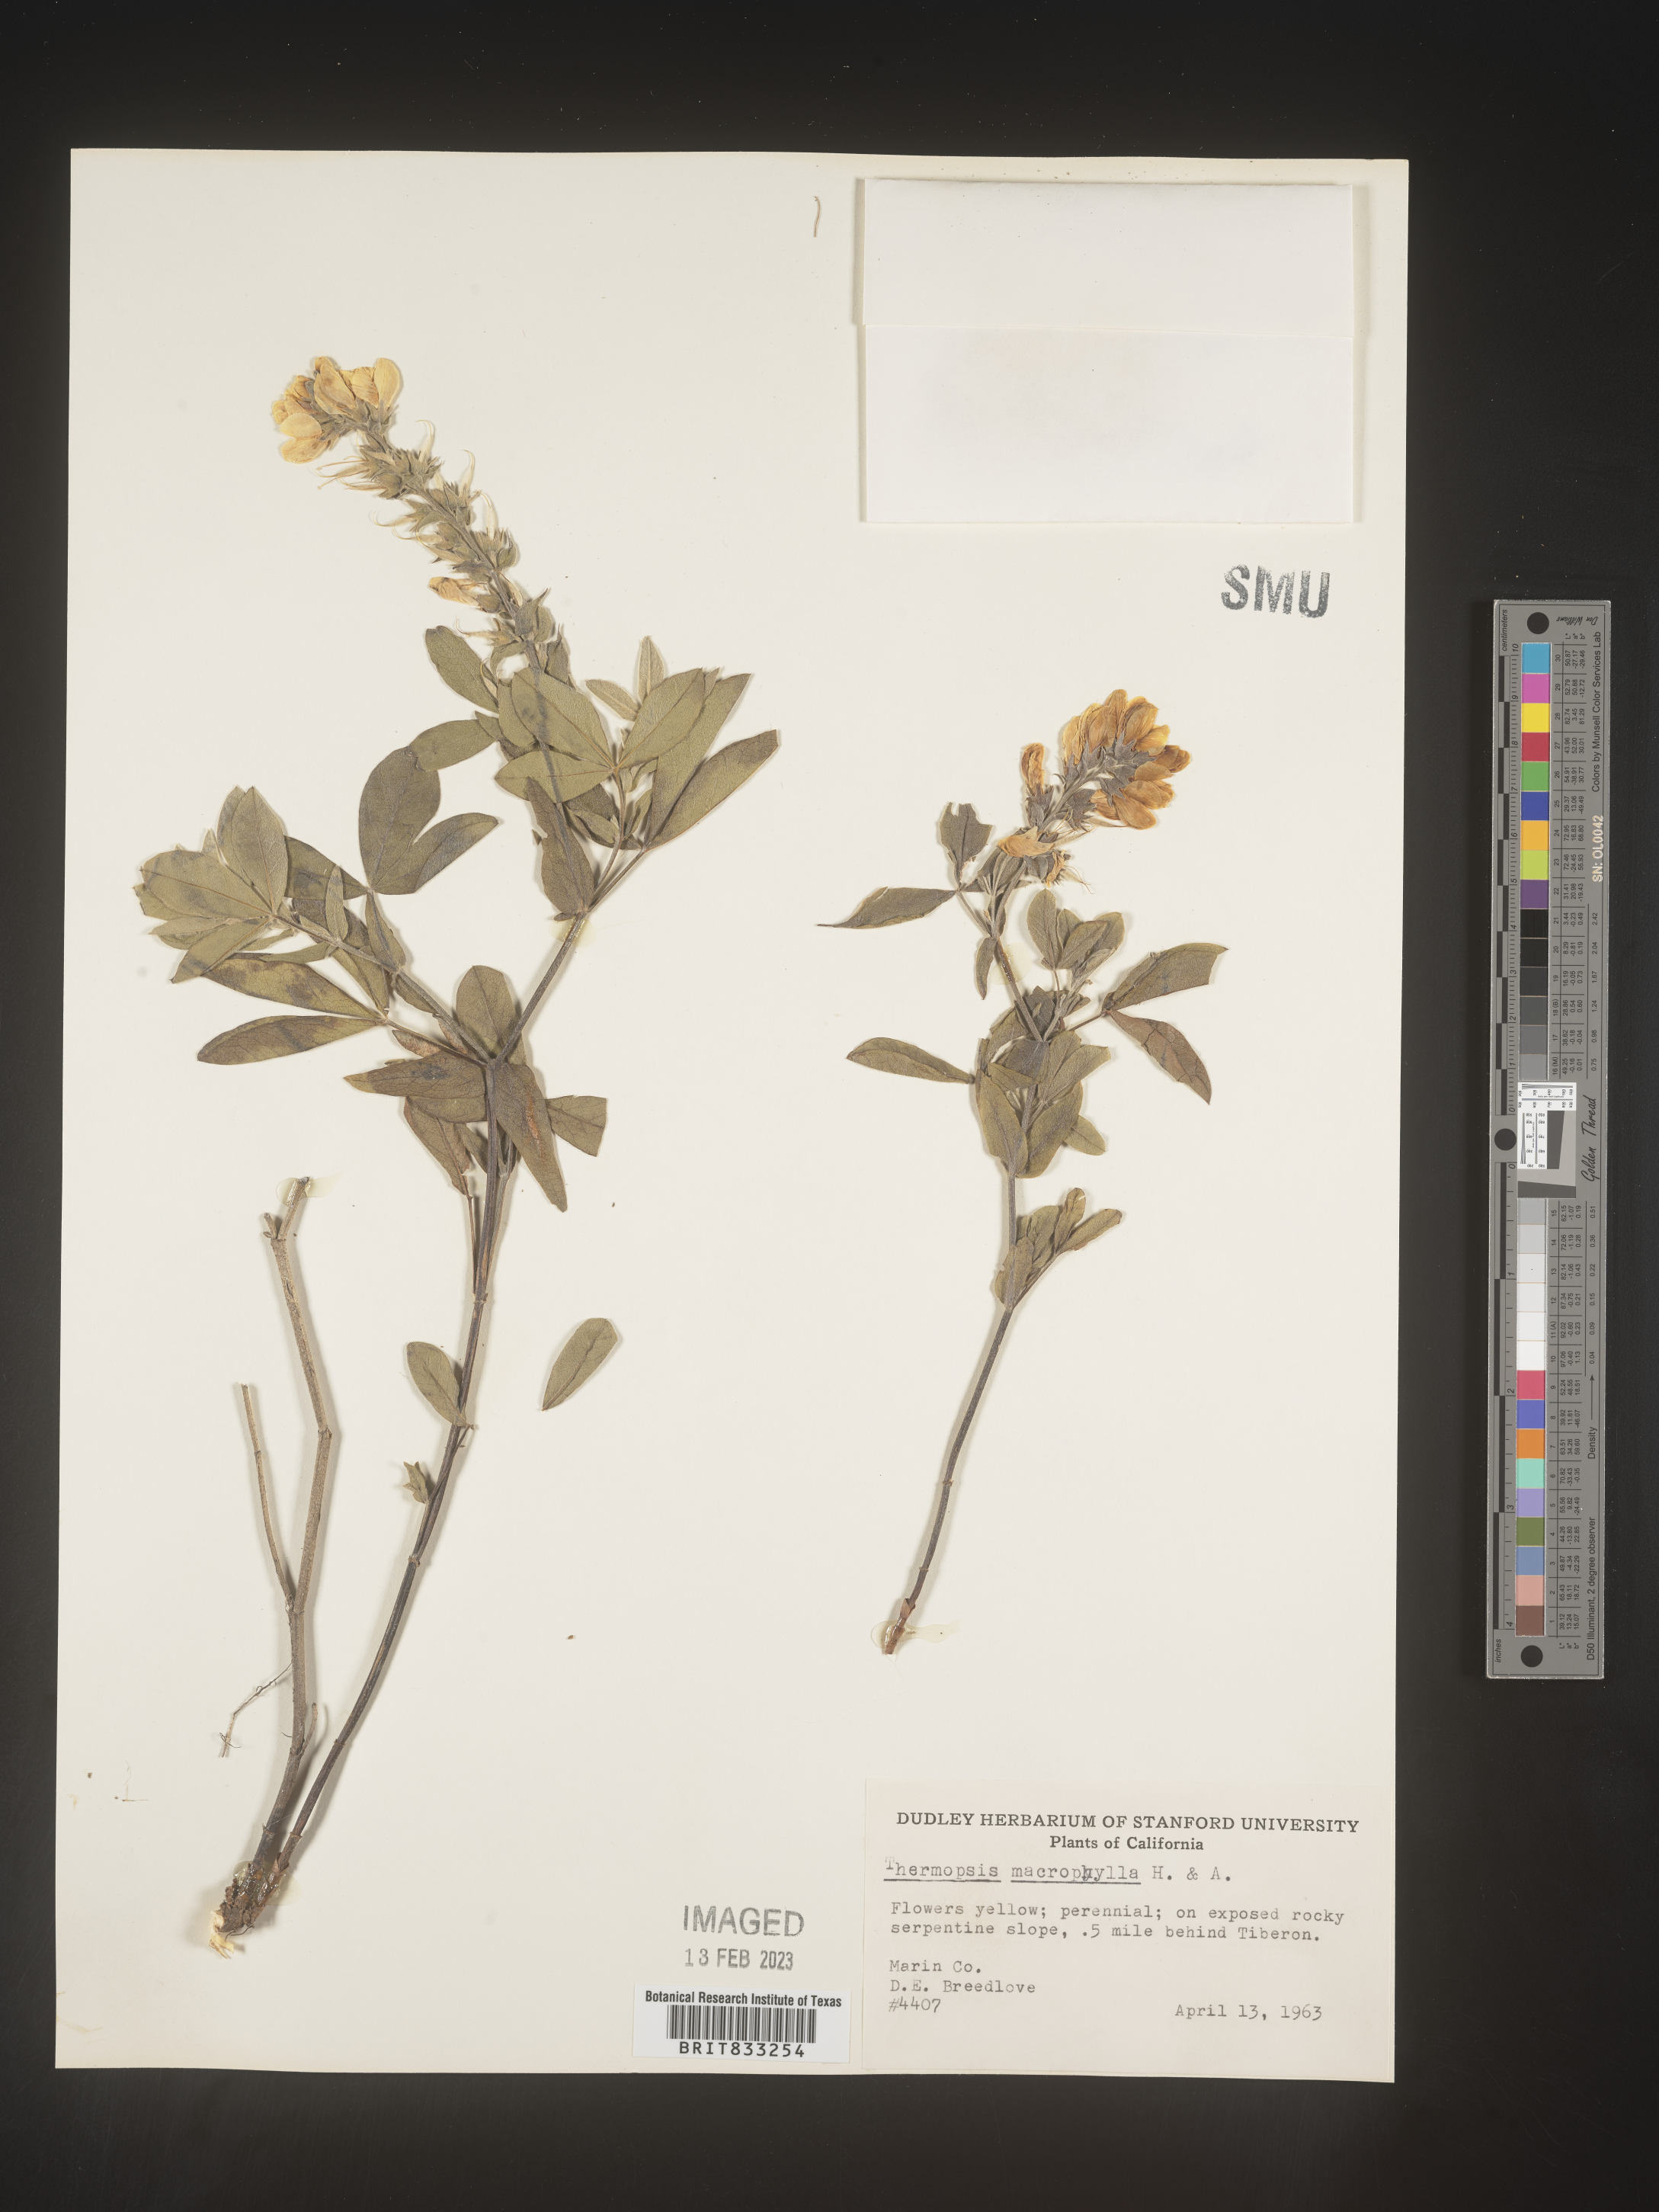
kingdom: Plantae
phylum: Tracheophyta
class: Magnoliopsida
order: Fabales
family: Fabaceae
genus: Thermopsis
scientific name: Thermopsis macrophylla
